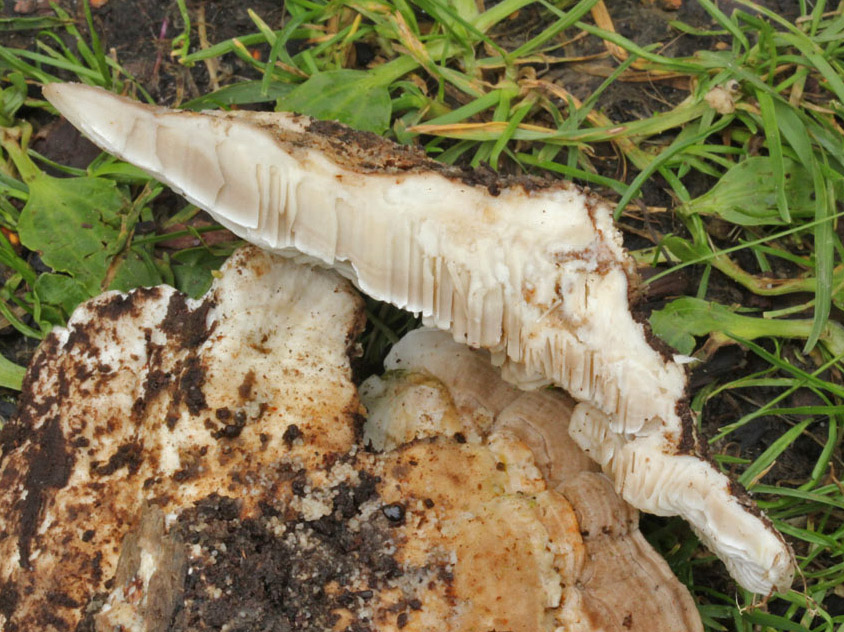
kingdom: Fungi
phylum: Basidiomycota
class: Agaricomycetes
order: Polyporales
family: Polyporaceae
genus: Lenzites
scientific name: Lenzites betulinus
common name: birke-læderporesvamp
